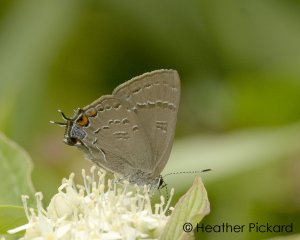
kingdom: Animalia
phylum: Arthropoda
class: Insecta
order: Lepidoptera
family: Lycaenidae
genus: Satyrium
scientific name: Satyrium calanus
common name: Banded Hairstreak
